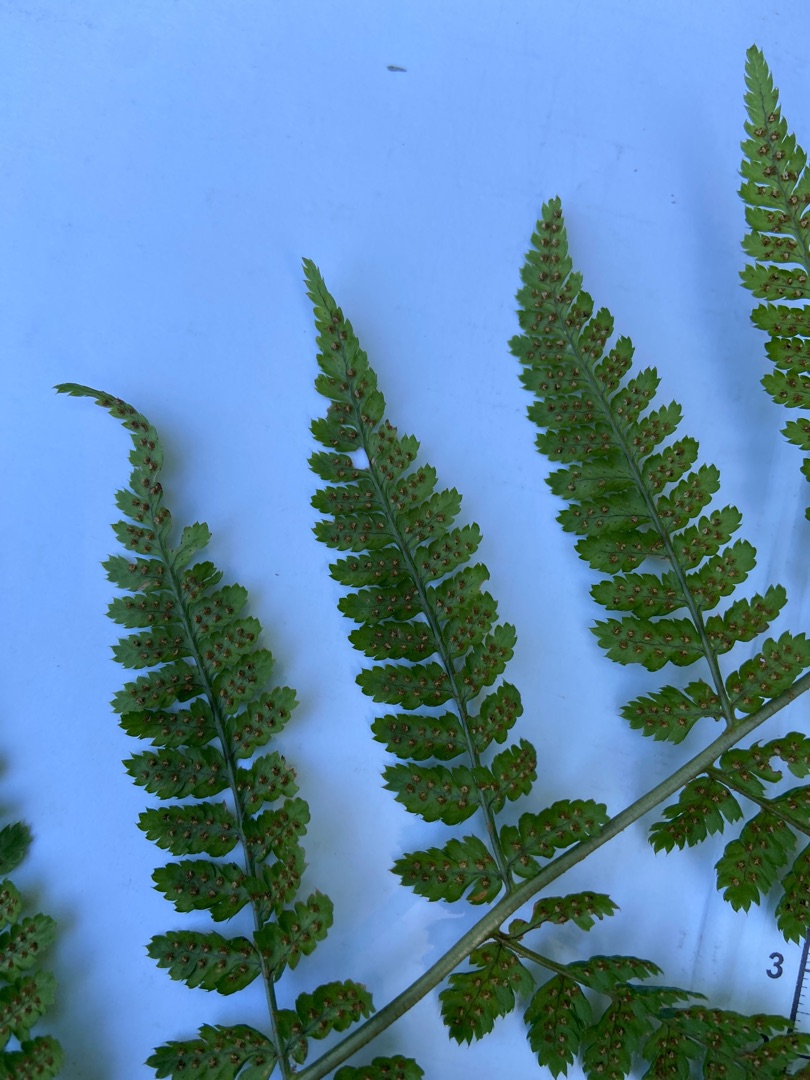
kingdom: Plantae
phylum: Tracheophyta
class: Polypodiopsida
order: Polypodiales
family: Dryopteridaceae
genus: Dryopteris
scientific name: Dryopteris carthusiana
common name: Smalbladet mangeløv
